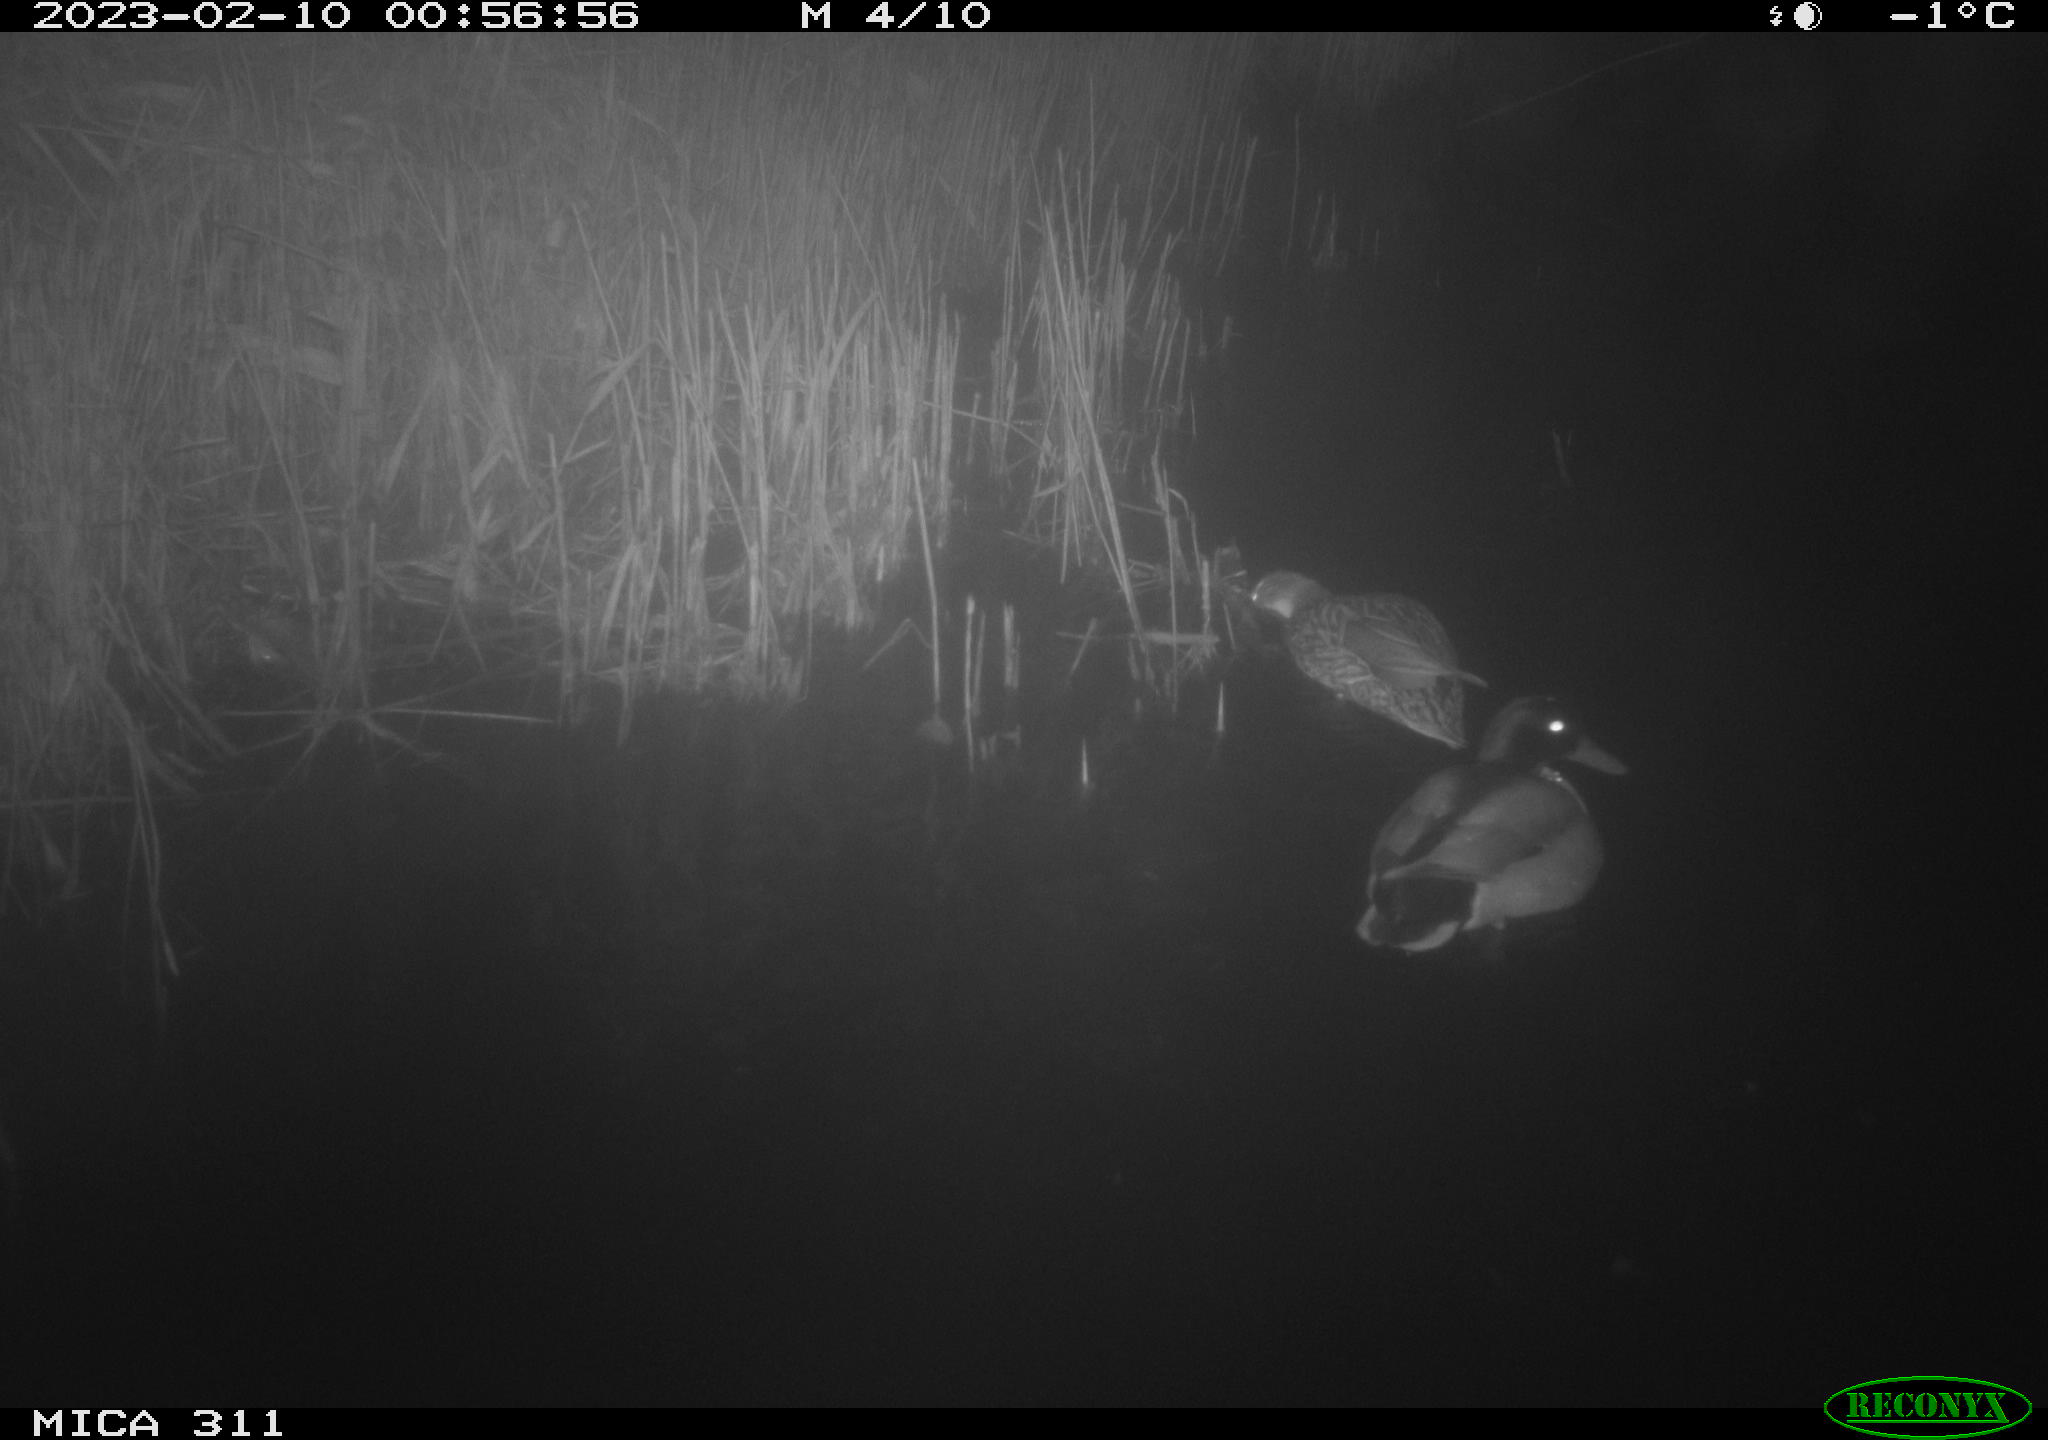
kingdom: Animalia
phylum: Chordata
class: Aves
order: Anseriformes
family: Anatidae
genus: Anas
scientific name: Anas
